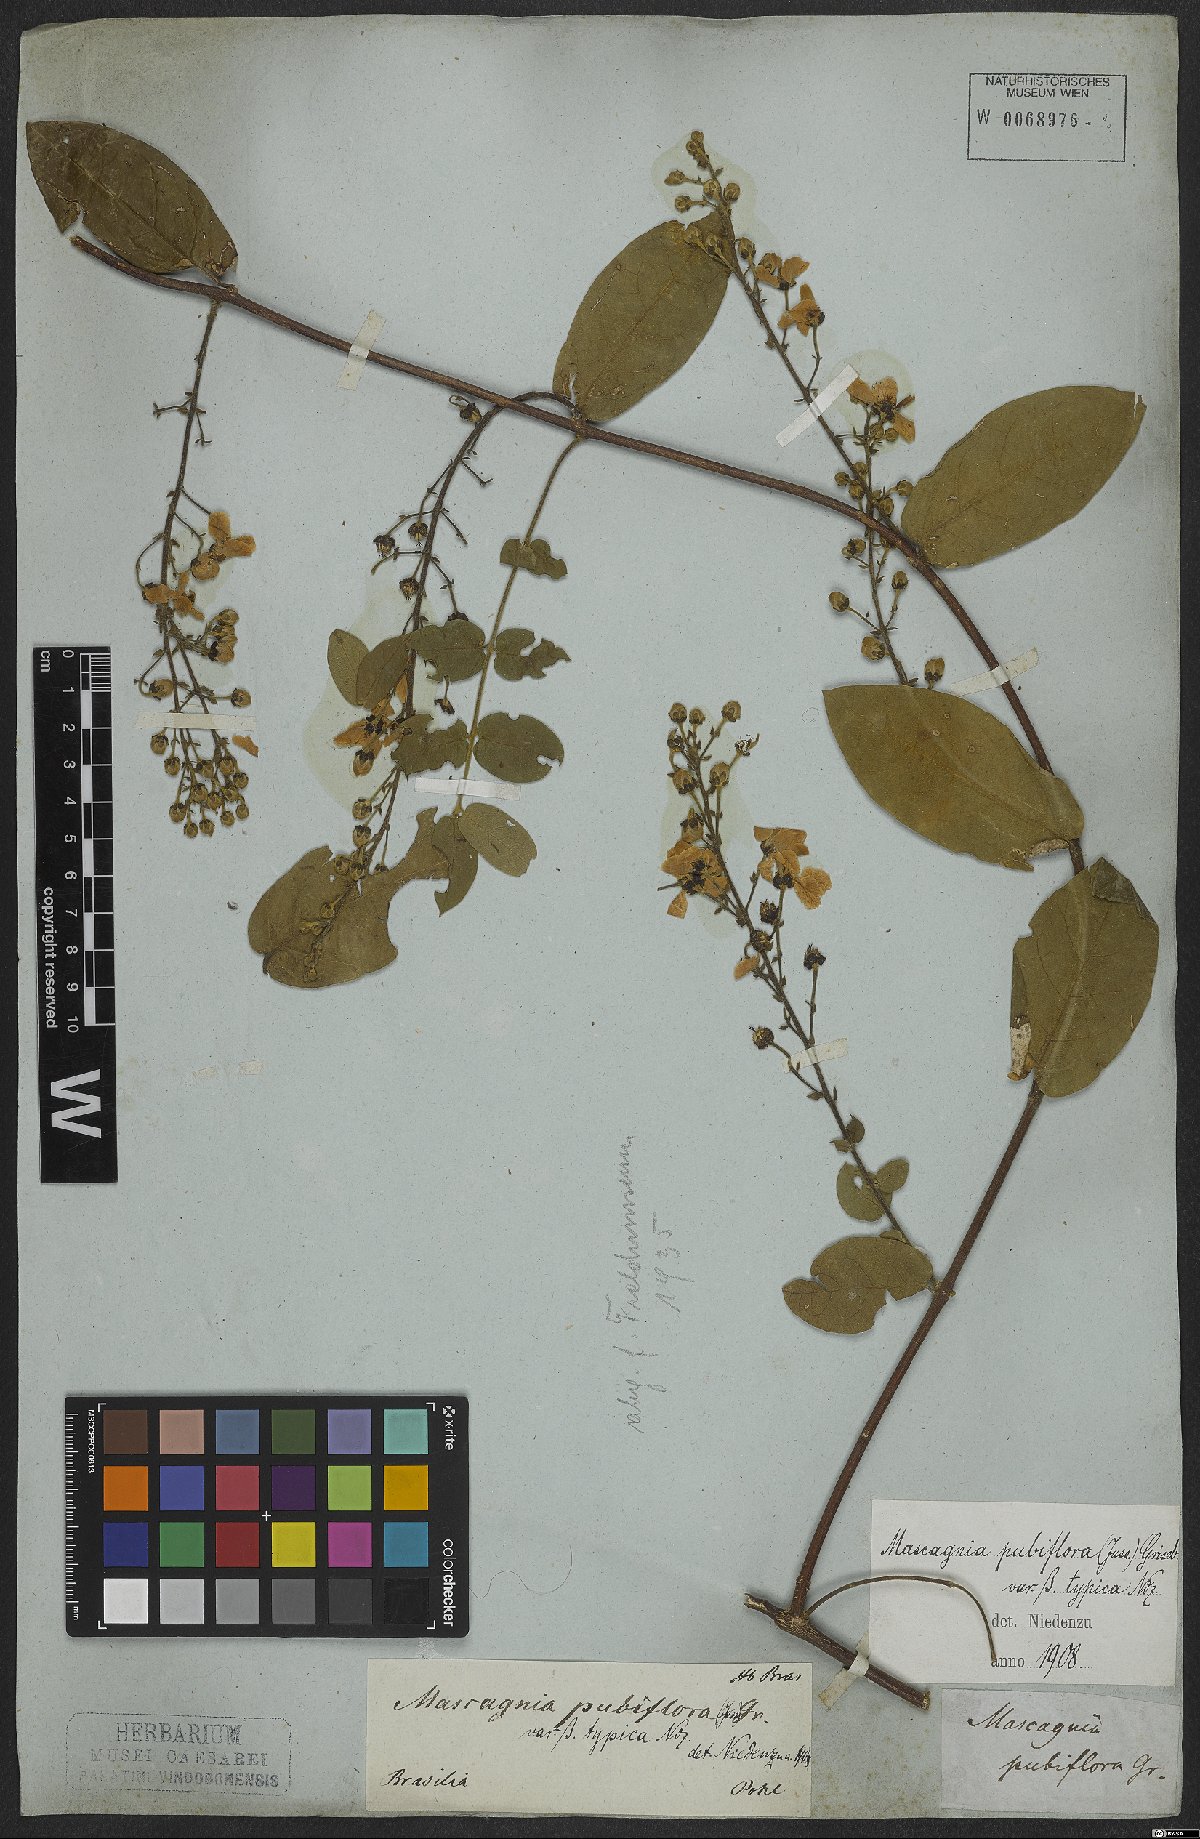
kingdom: Plantae
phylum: Tracheophyta
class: Magnoliopsida
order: Malpighiales
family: Malpighiaceae
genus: Amorimia
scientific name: Amorimia pubiflora
